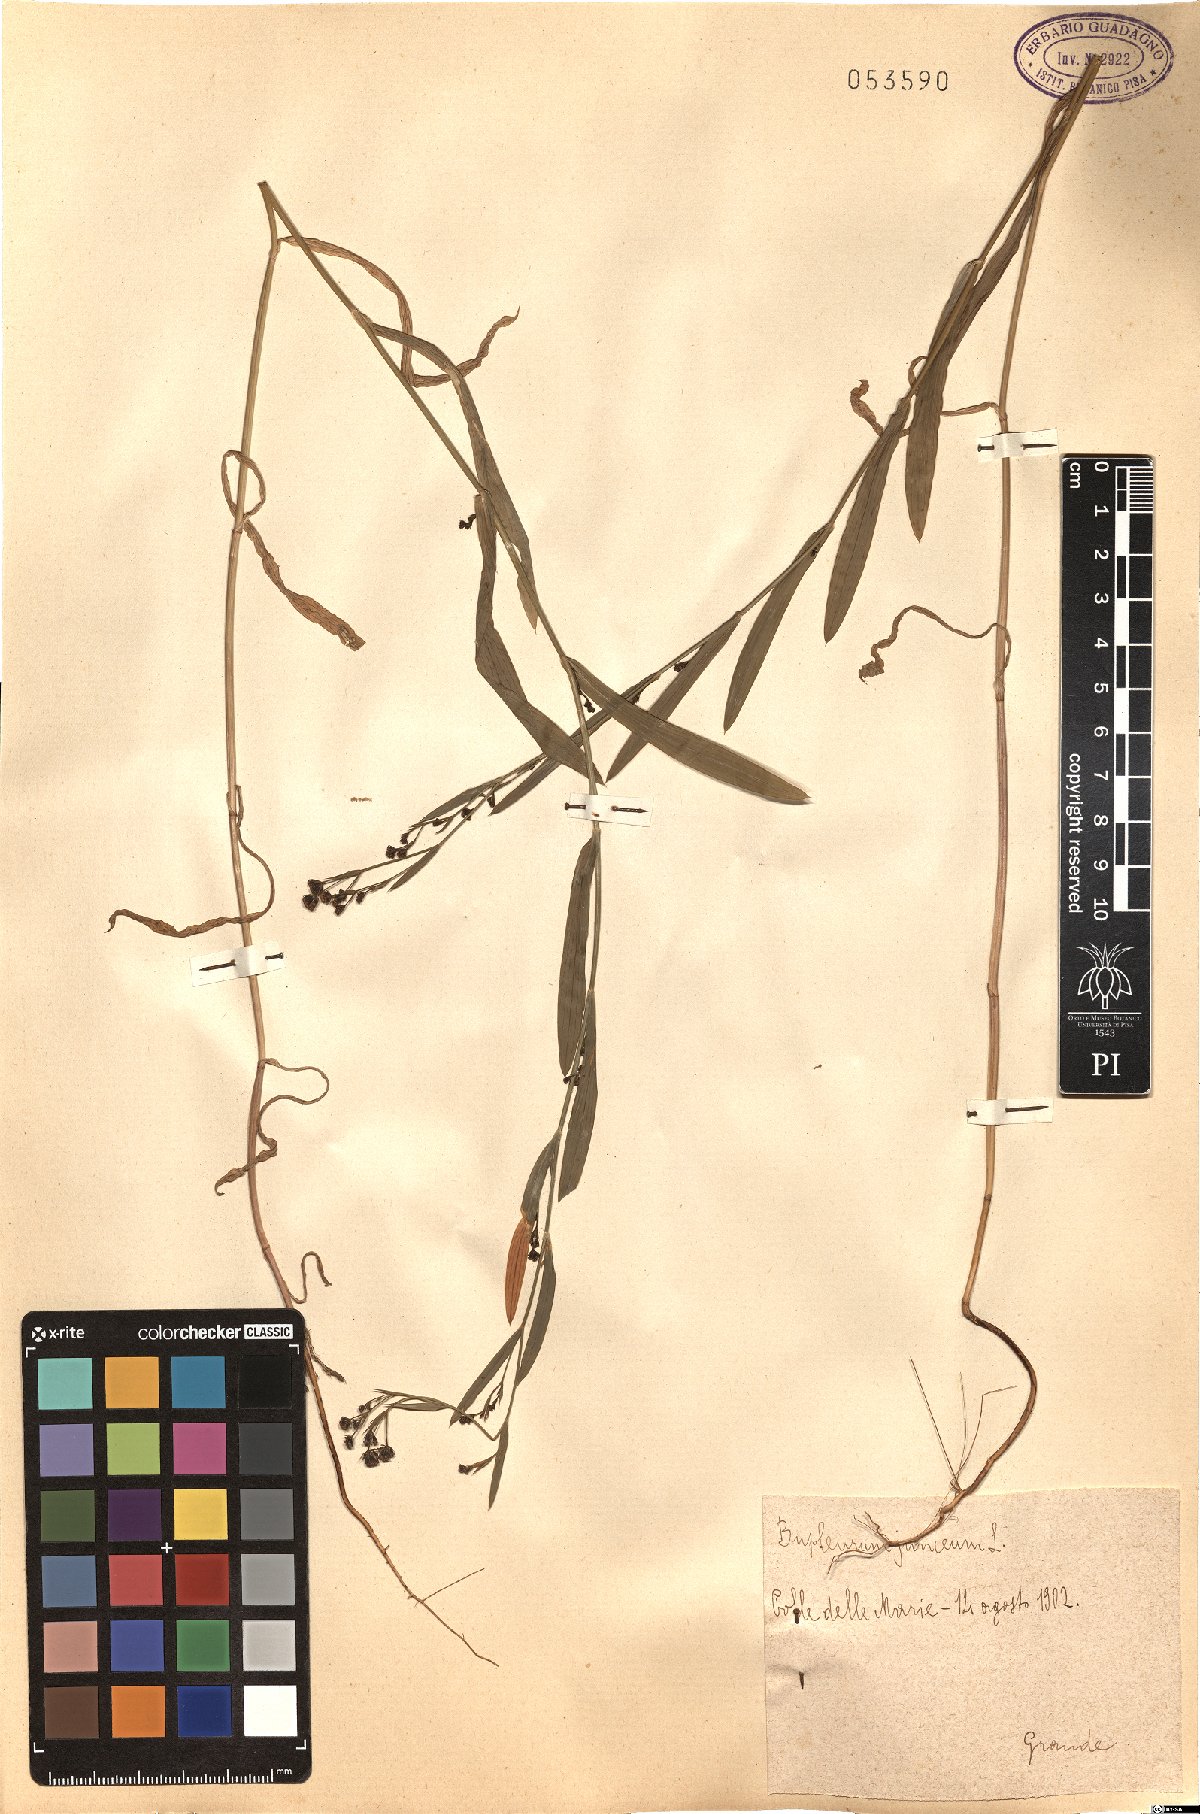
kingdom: Plantae
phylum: Tracheophyta
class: Magnoliopsida
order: Apiales
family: Apiaceae
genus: Bupleurum
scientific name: Bupleurum praealtum
